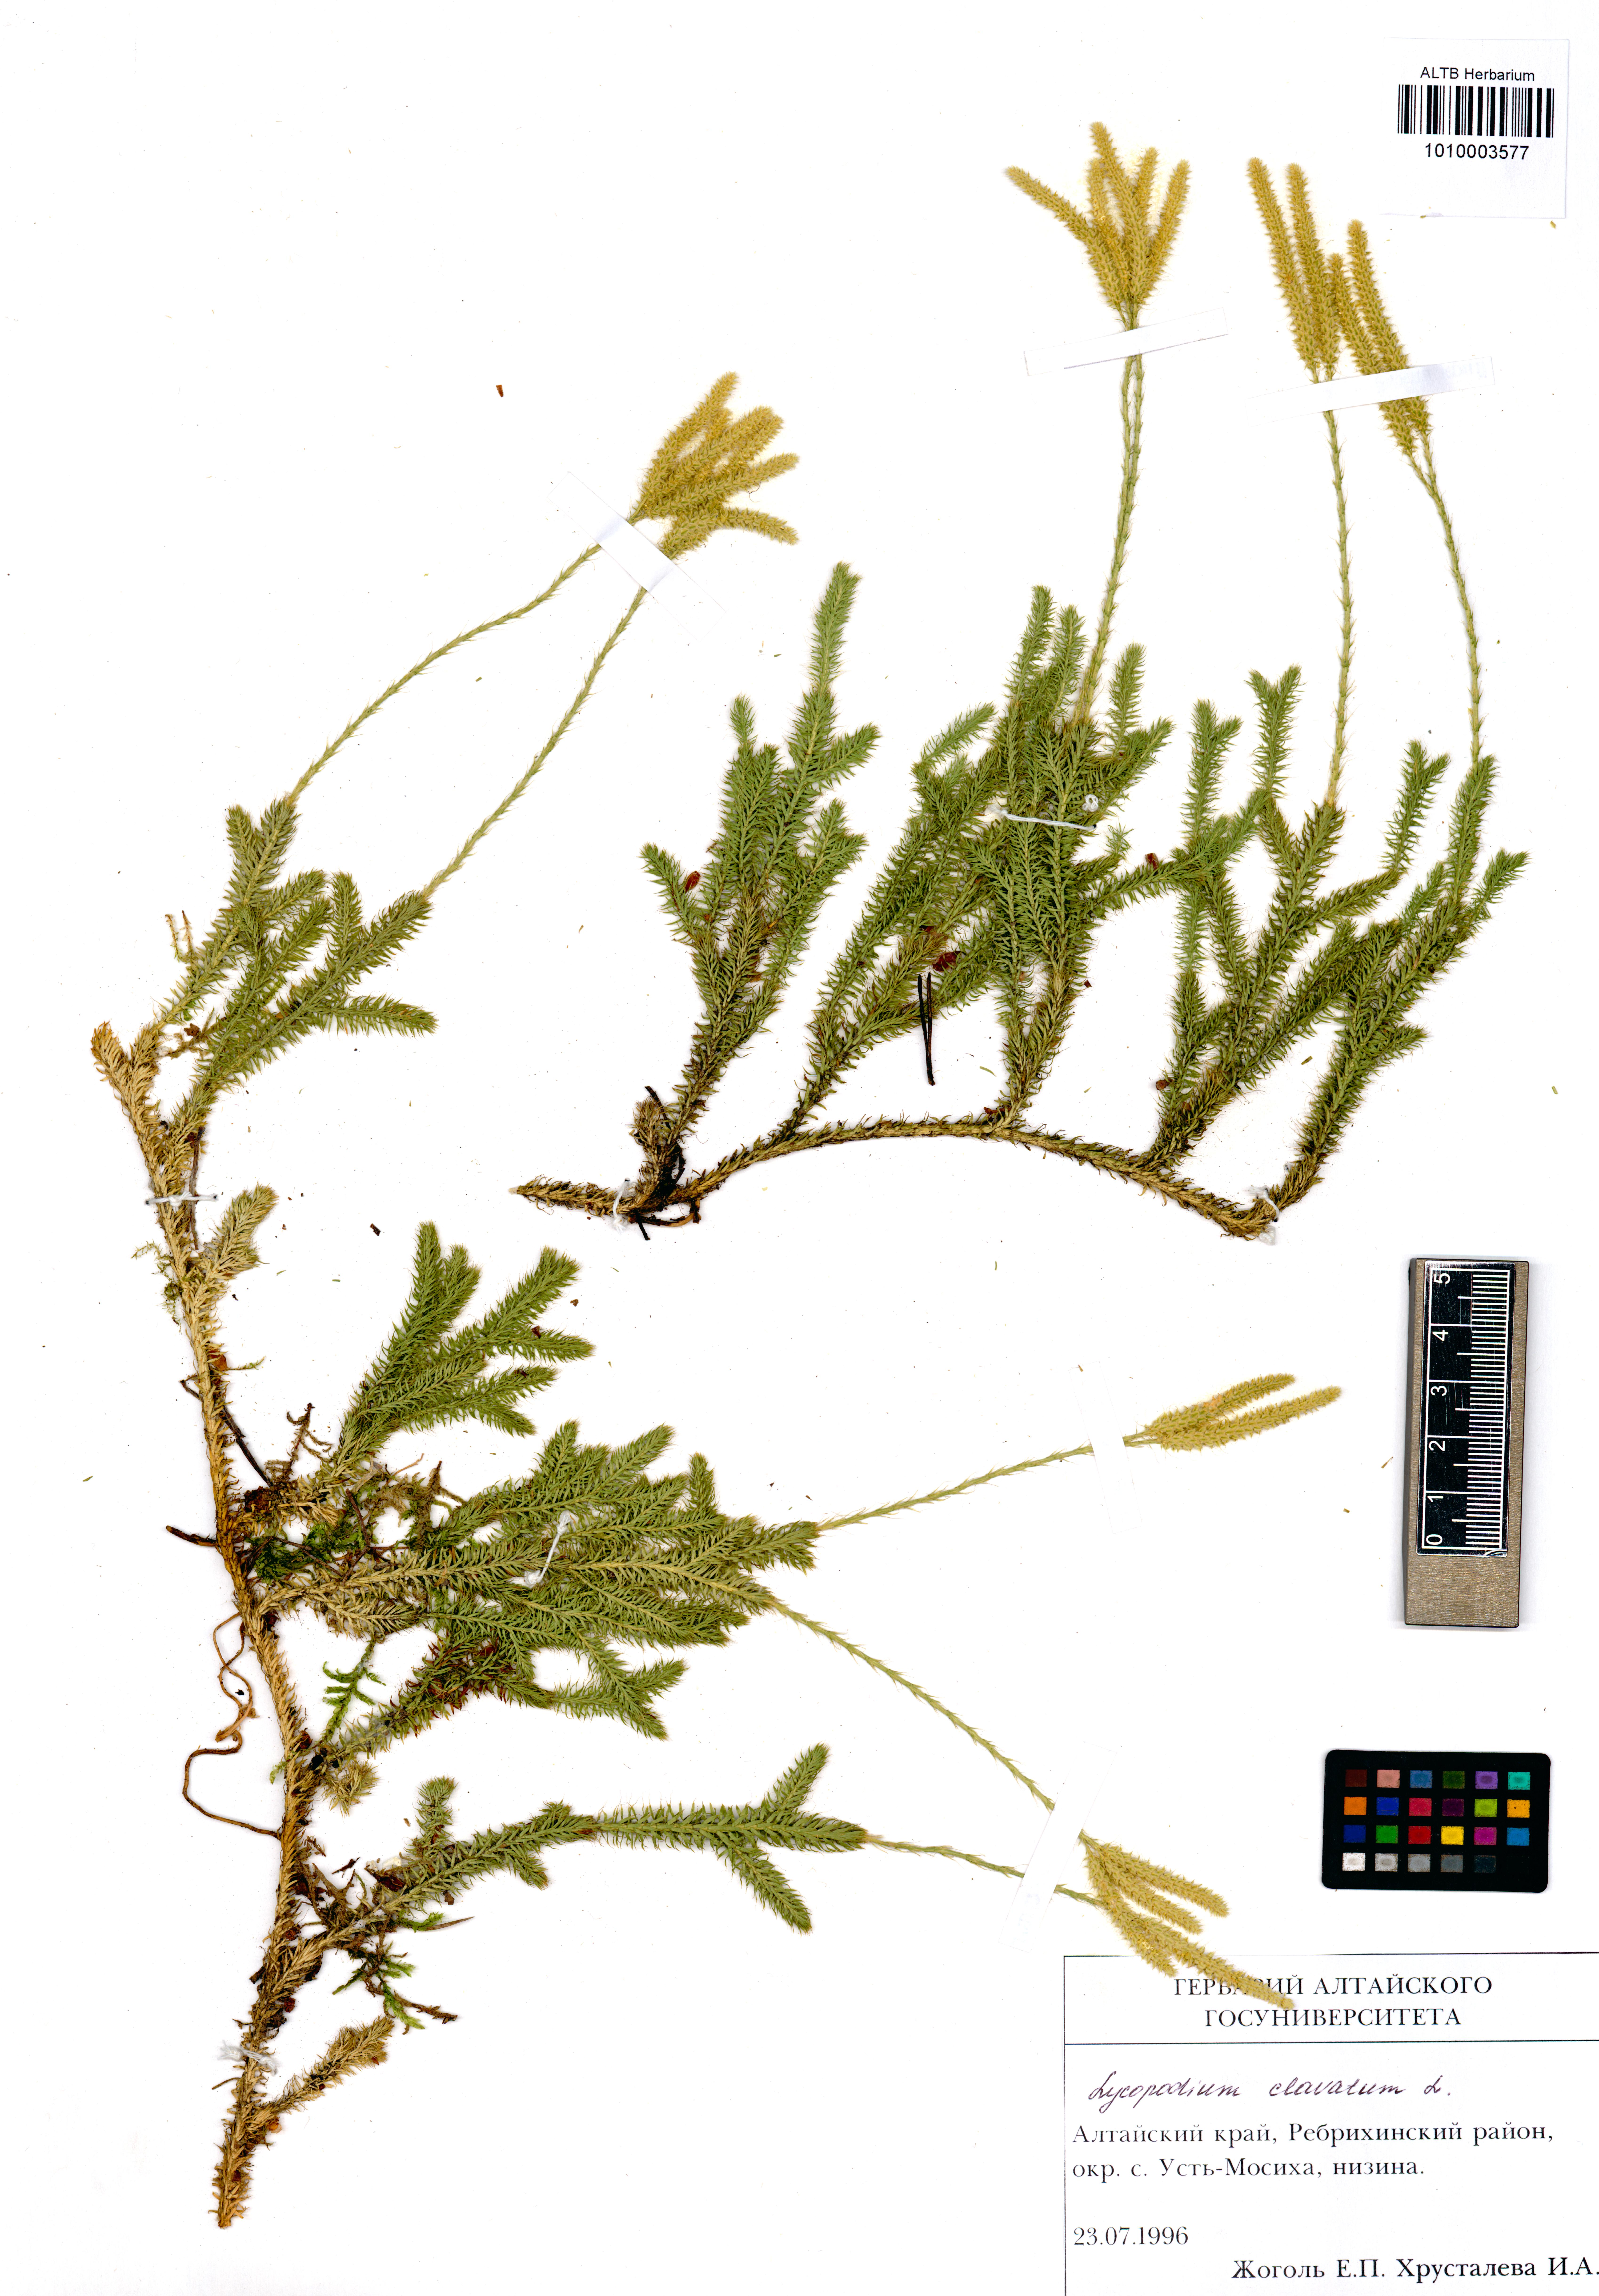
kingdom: Plantae
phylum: Tracheophyta
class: Lycopodiopsida
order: Lycopodiales
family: Lycopodiaceae
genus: Lycopodium
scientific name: Lycopodium clavatum
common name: Stag's-horn clubmoss
